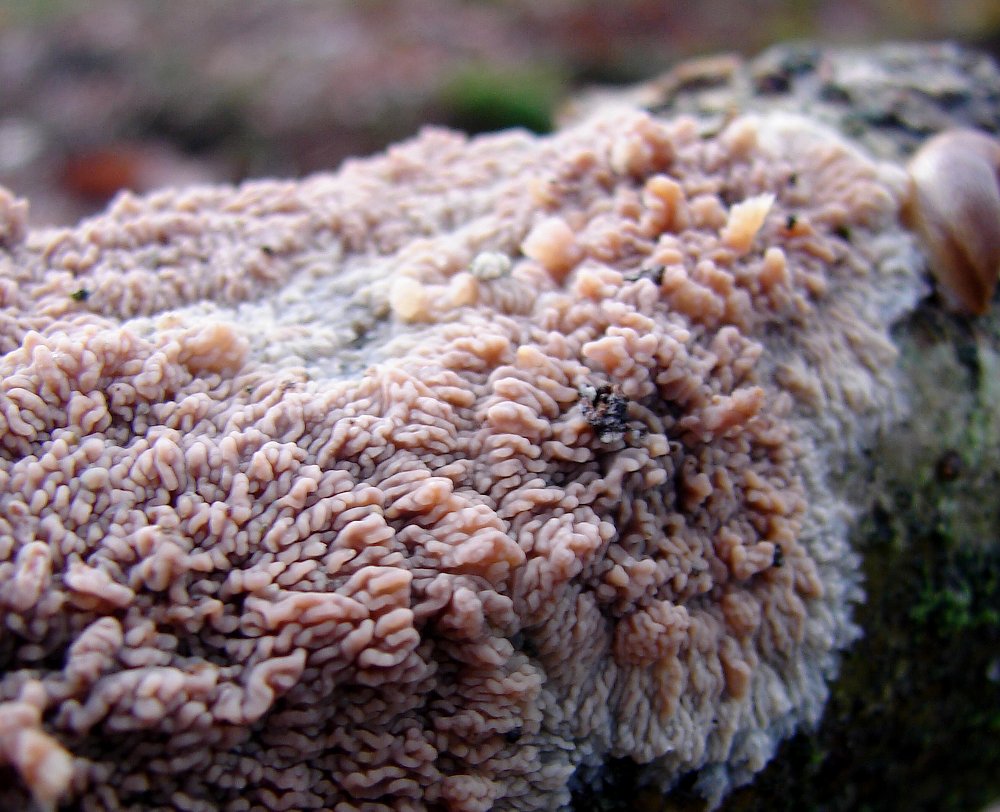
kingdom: Fungi
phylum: Basidiomycota
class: Agaricomycetes
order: Polyporales
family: Meruliaceae
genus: Phlebia
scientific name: Phlebia radiata
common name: stråle-åresvamp
